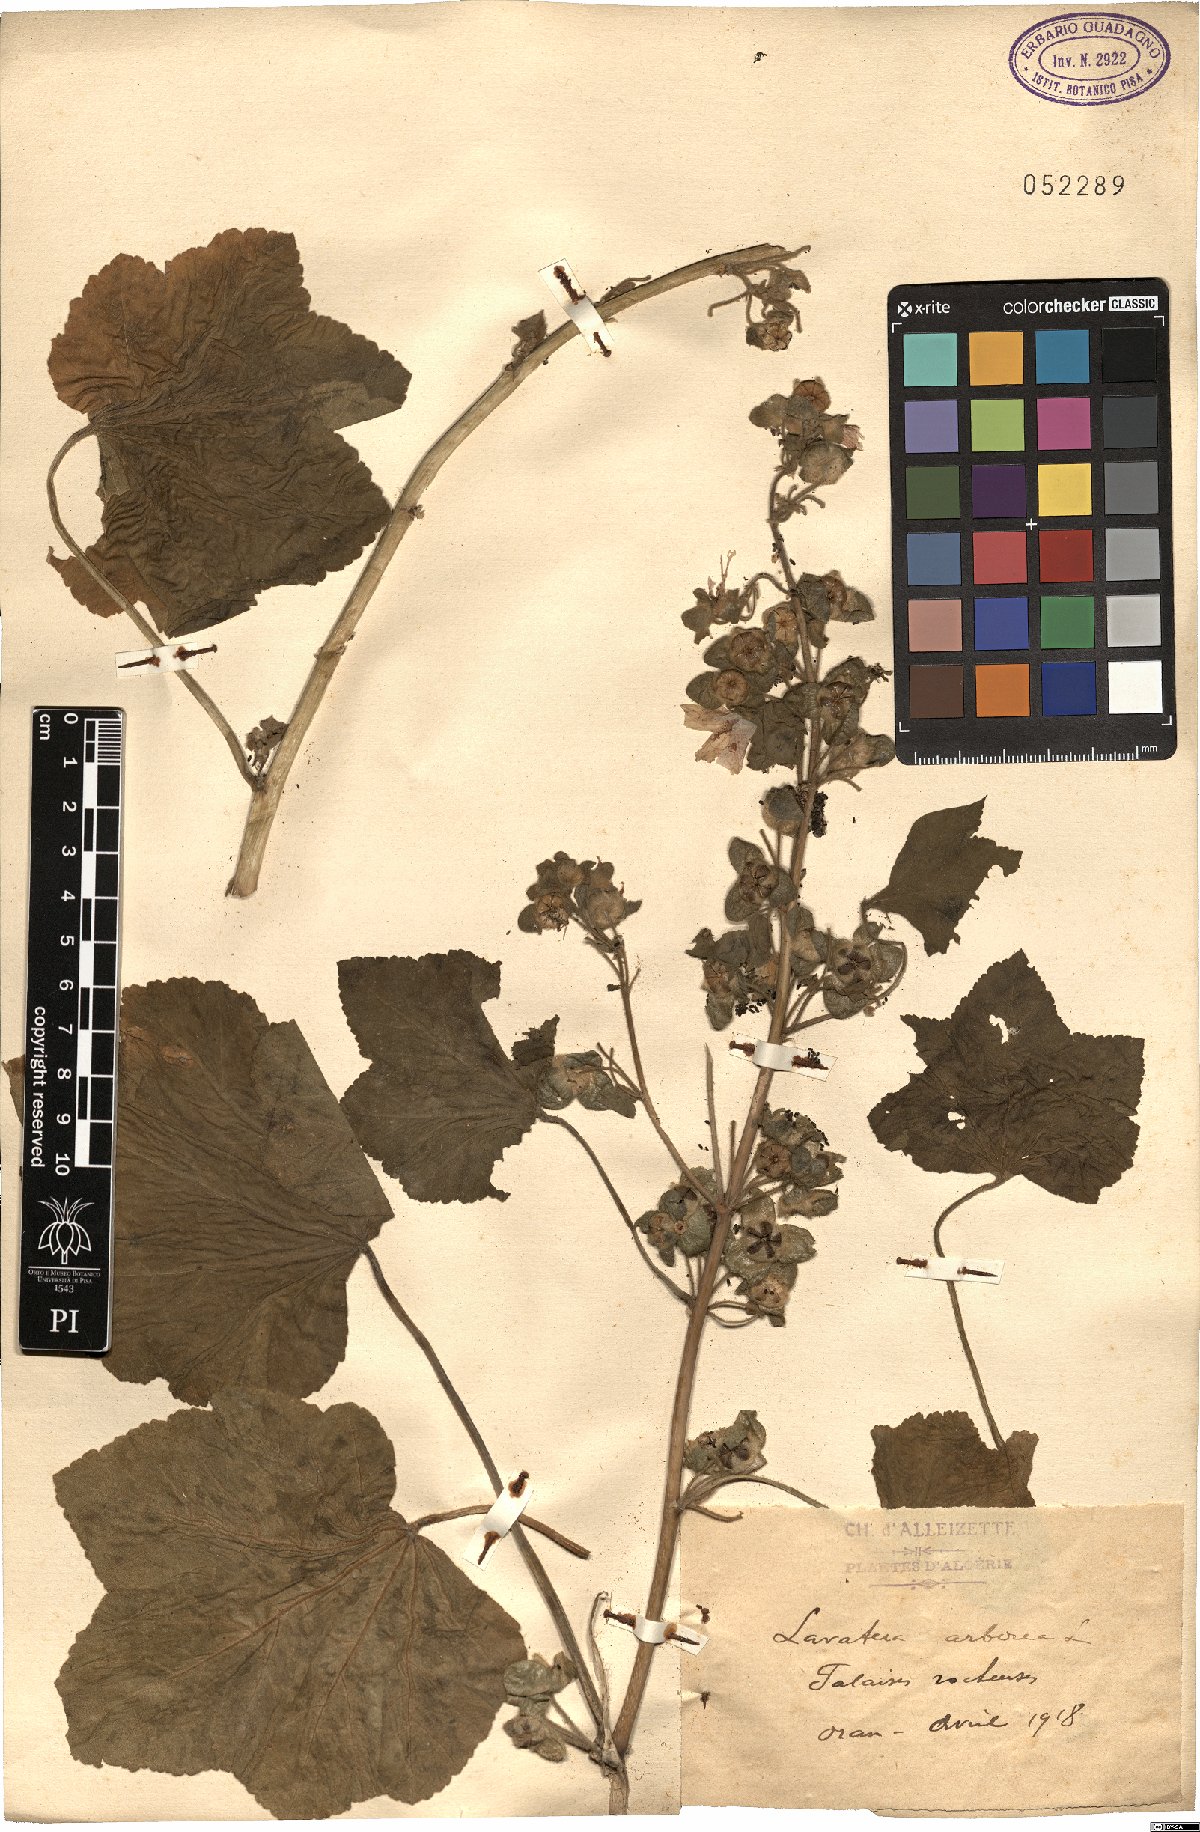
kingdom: Plantae
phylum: Tracheophyta
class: Magnoliopsida
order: Malvales
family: Malvaceae
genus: Malva
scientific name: Malva arborea
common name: Tree mallow
